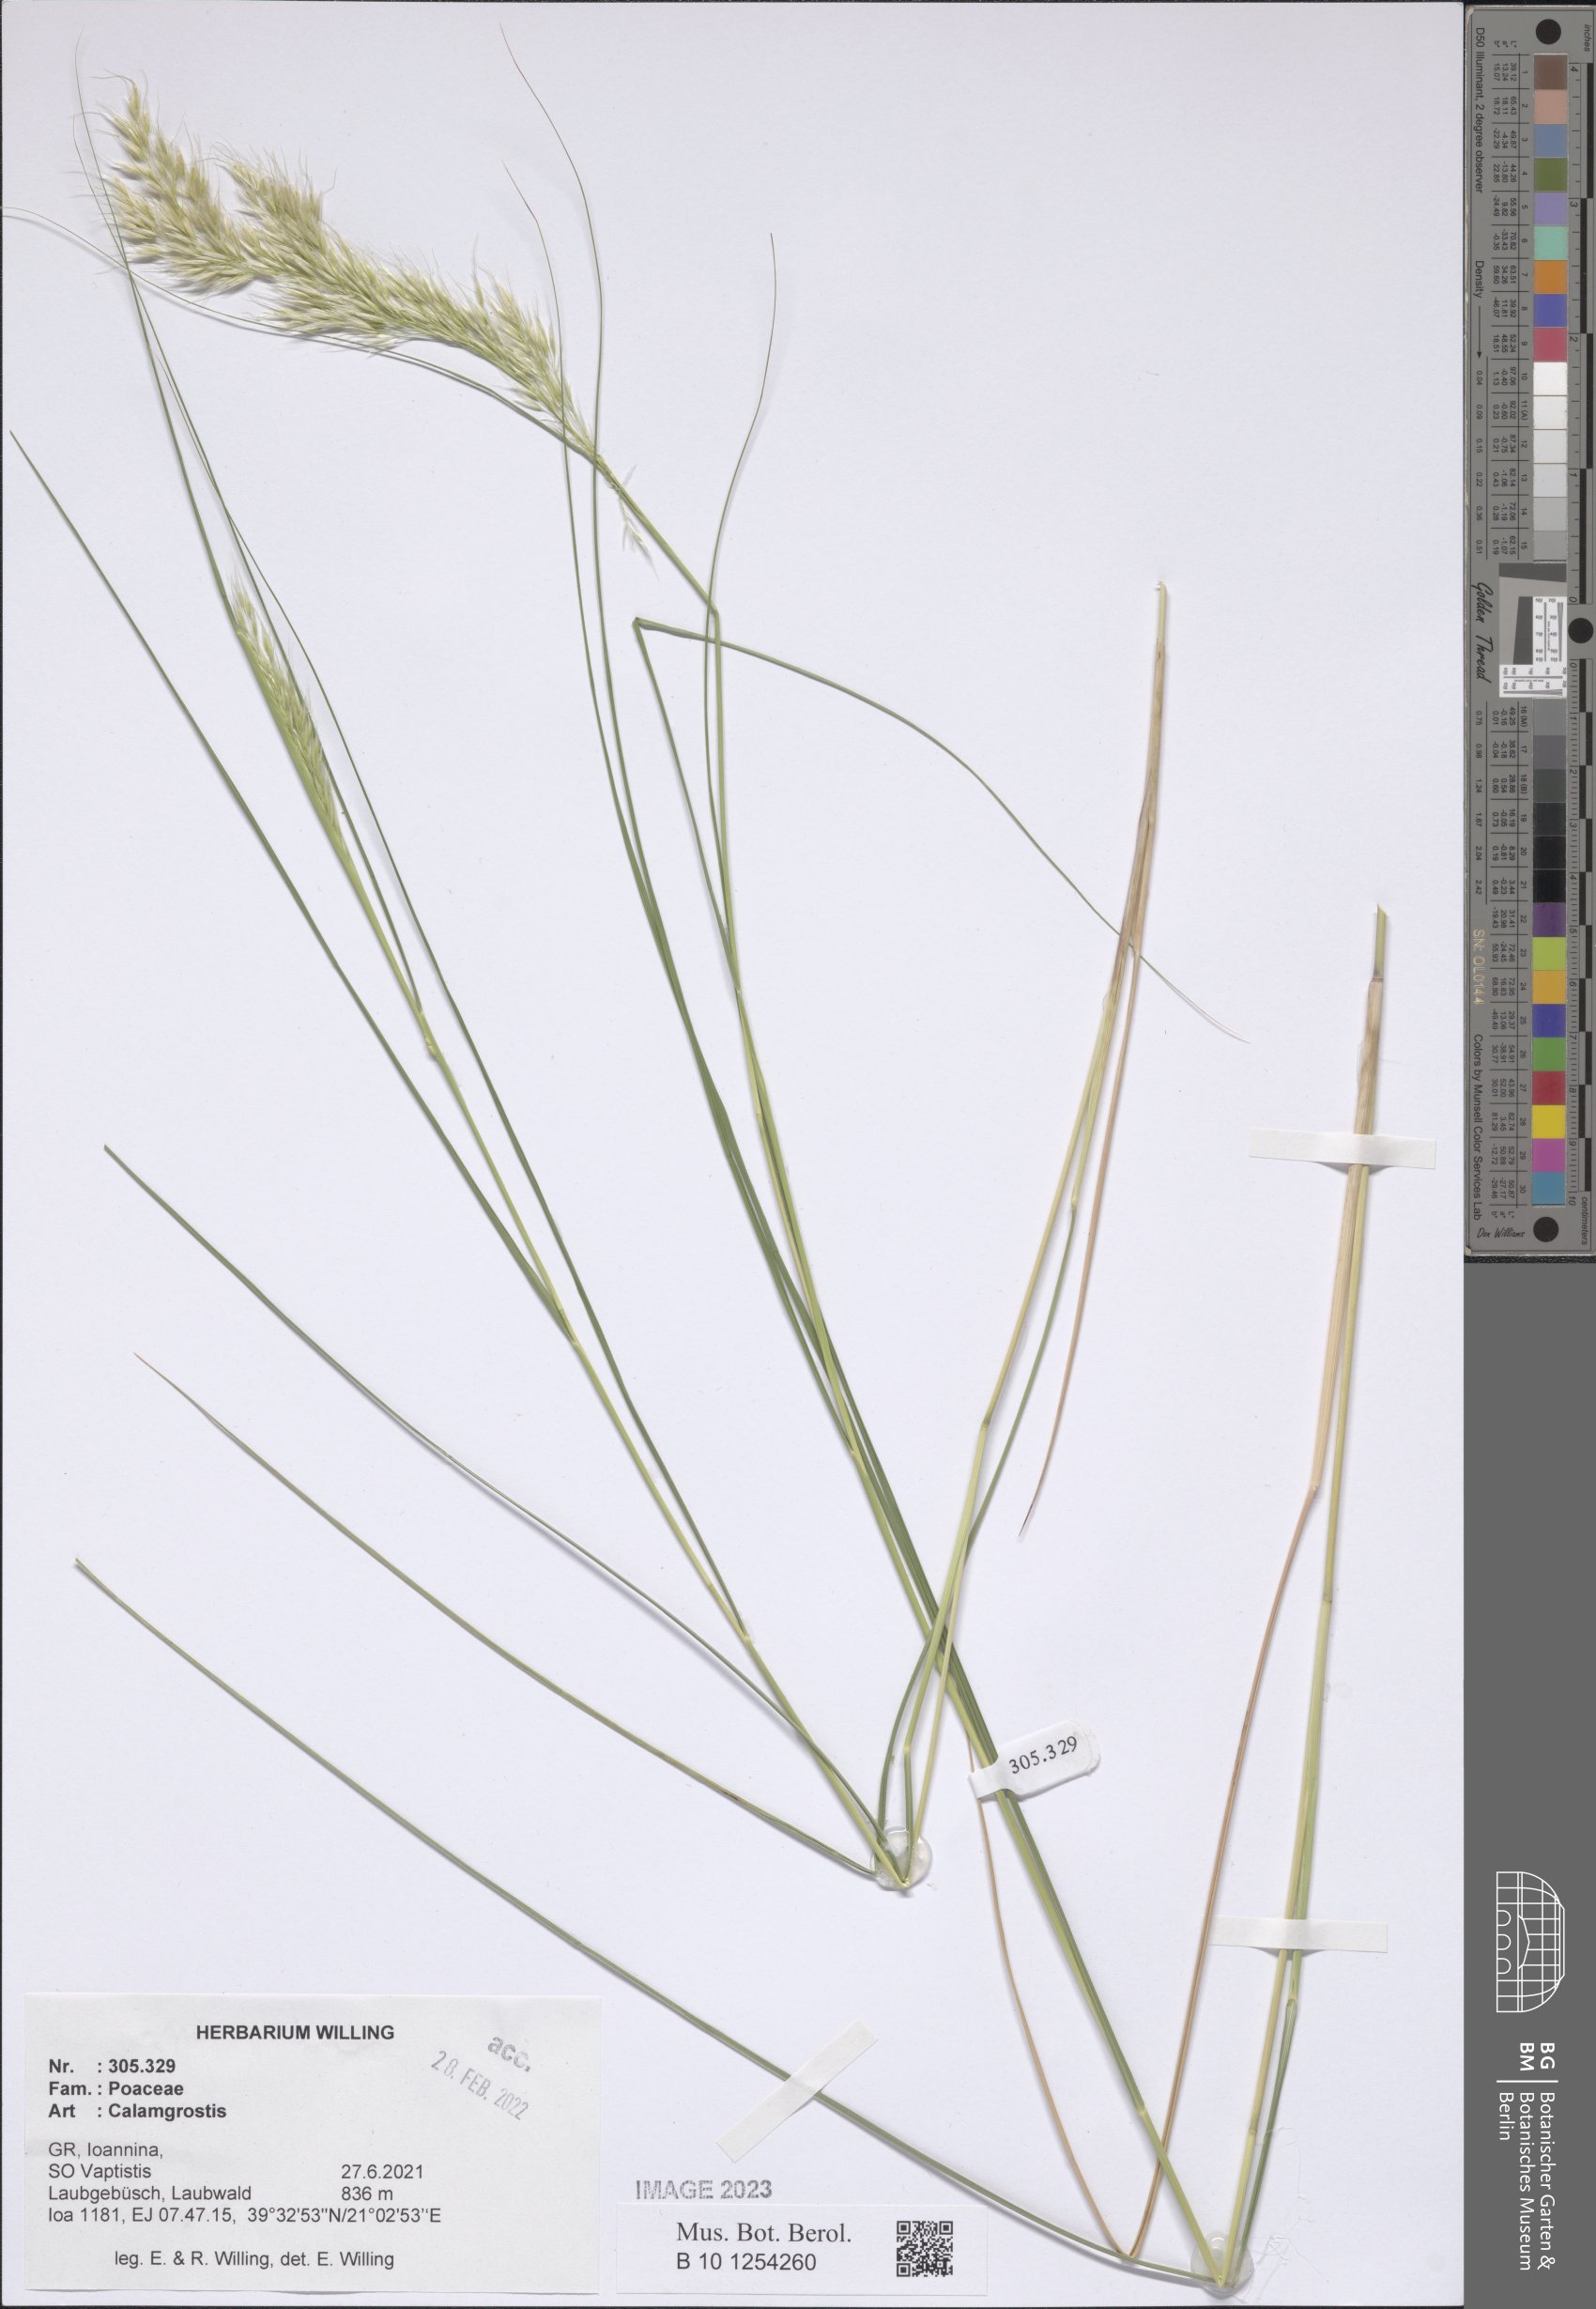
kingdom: Plantae
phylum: Tracheophyta
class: Liliopsida
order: Poales
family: Poaceae
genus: Calamagrostis
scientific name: Calamagrostis
